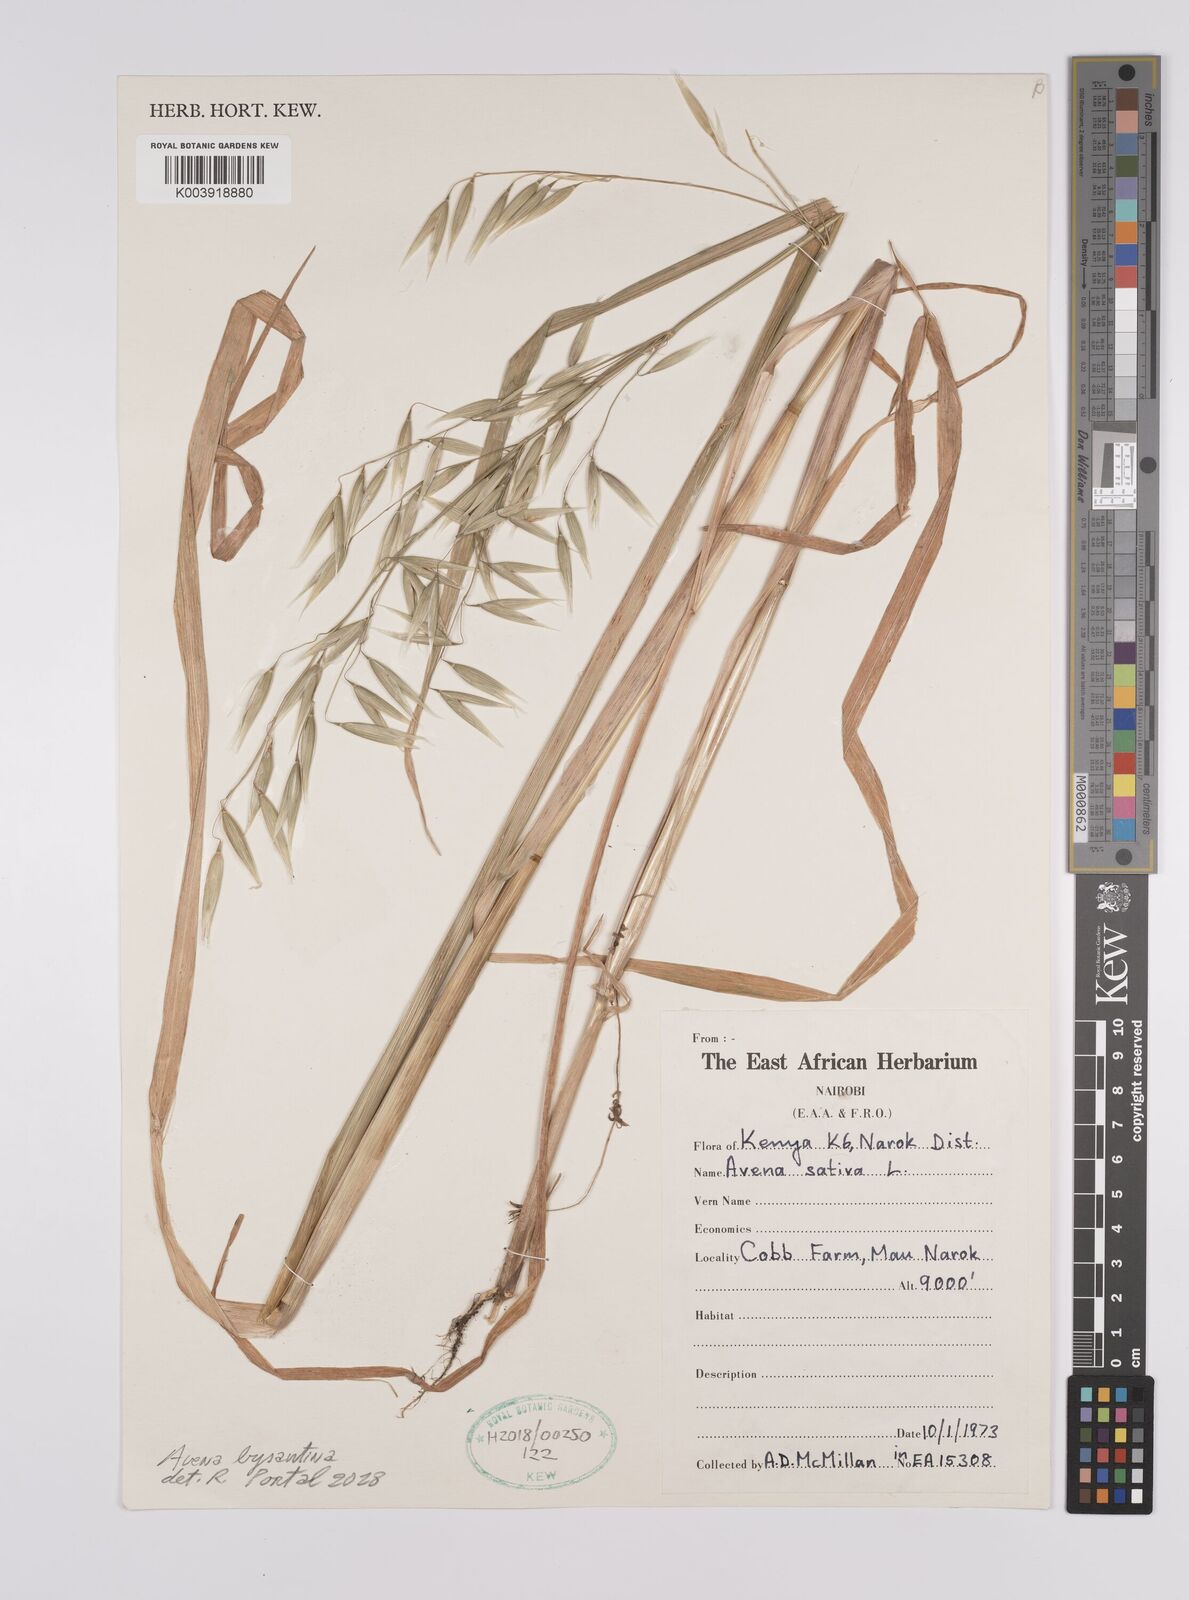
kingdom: Plantae
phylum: Tracheophyta
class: Liliopsida
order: Poales
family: Poaceae
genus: Avena
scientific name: Avena byzantina
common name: Algerian oat
